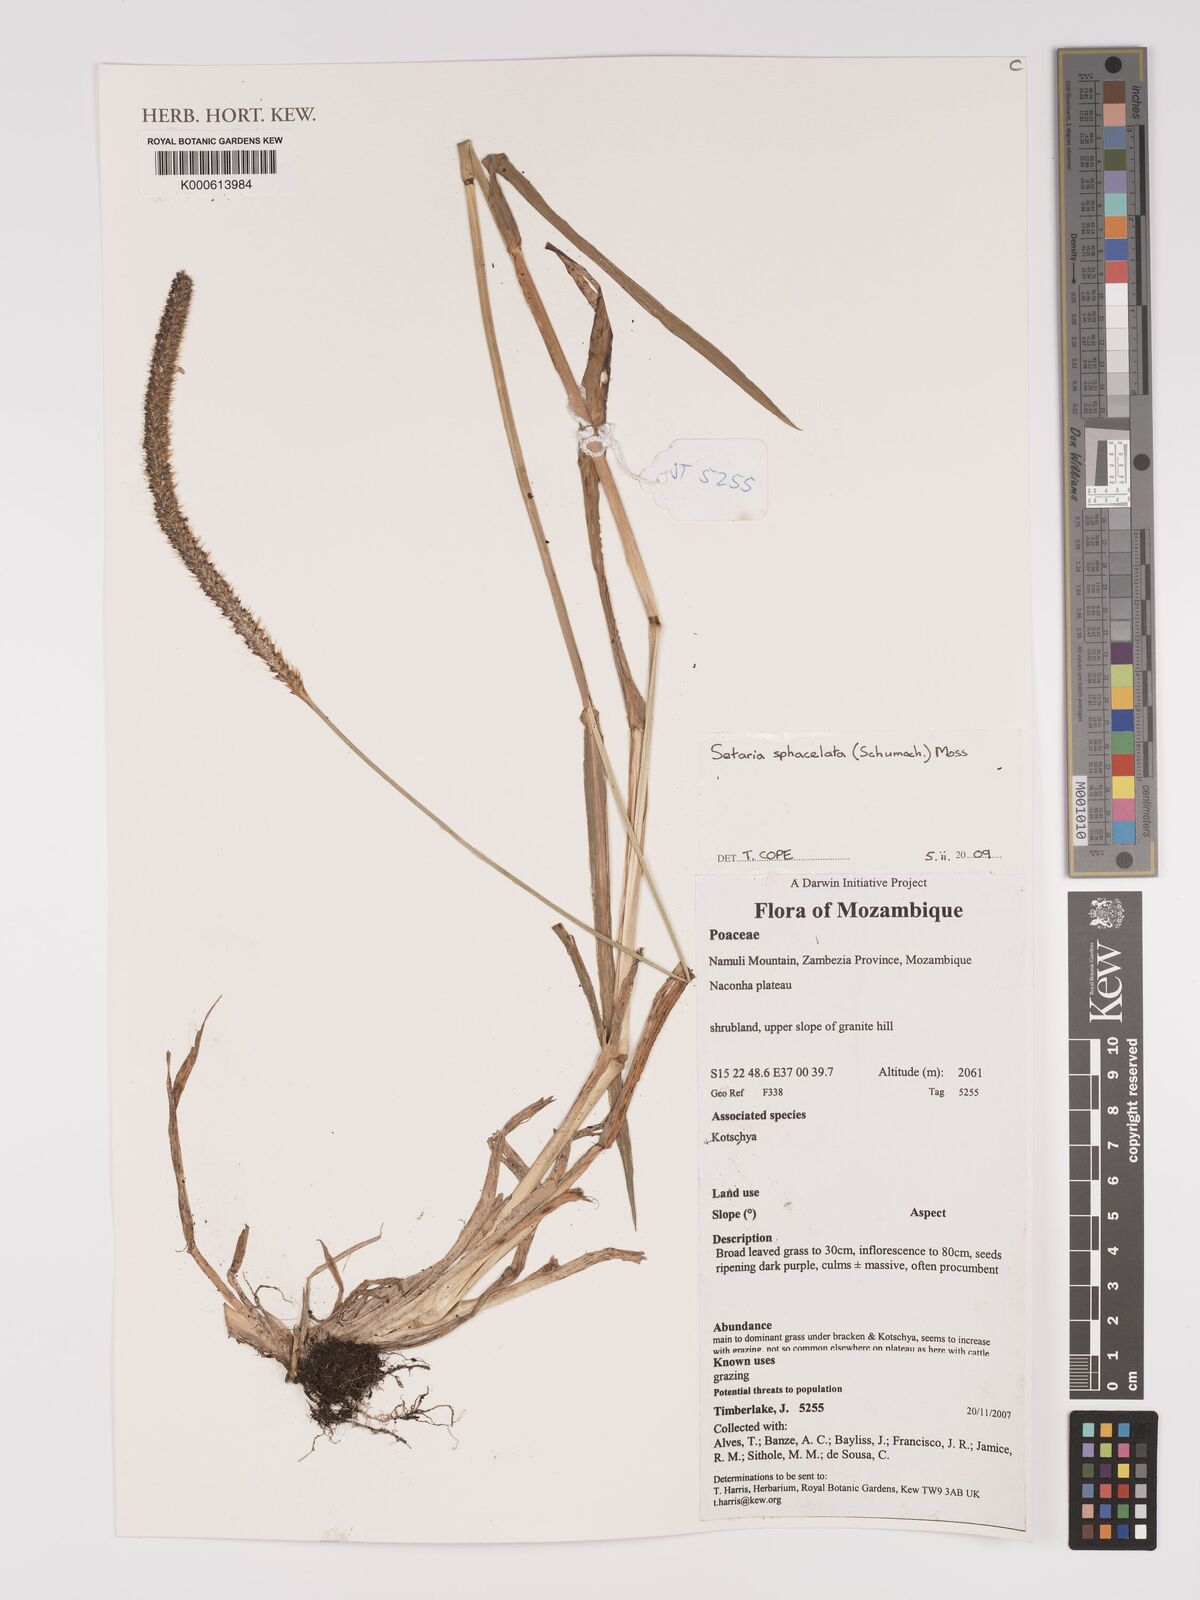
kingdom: Plantae
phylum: Tracheophyta
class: Liliopsida
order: Poales
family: Poaceae
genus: Setaria
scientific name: Setaria sphacelata
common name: African bristlegrass
